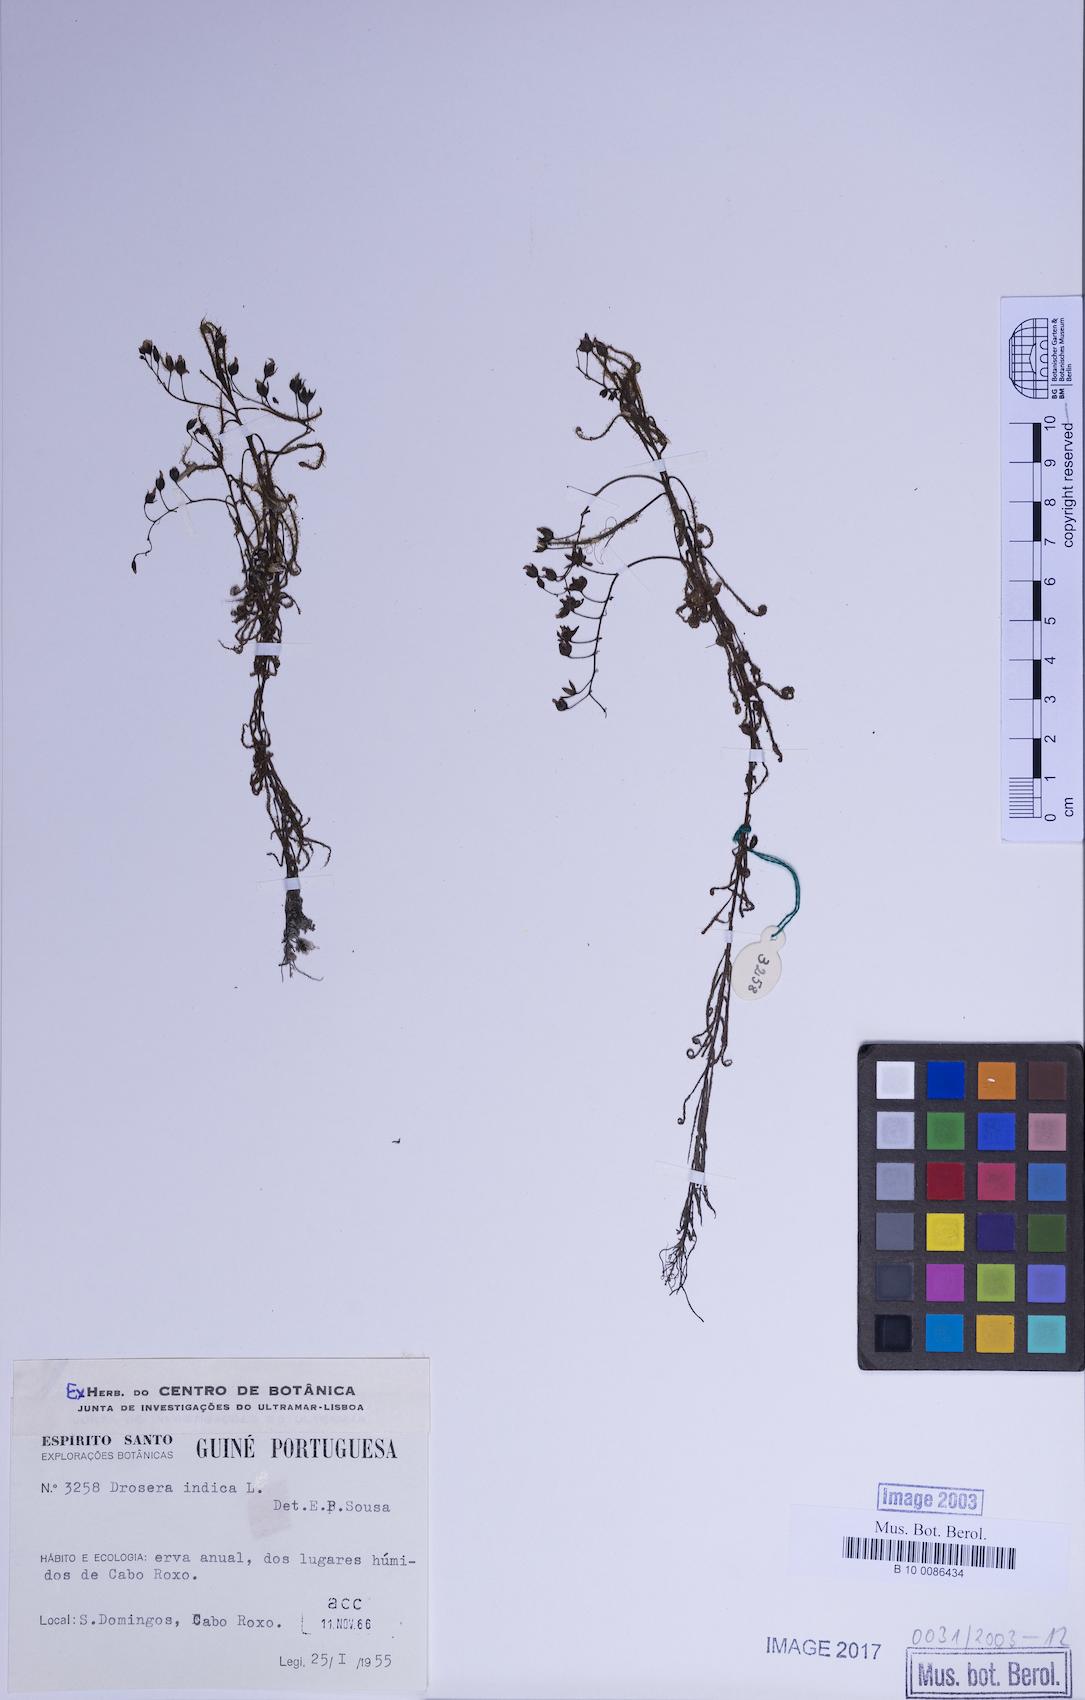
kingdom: Plantae
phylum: Tracheophyta
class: Magnoliopsida
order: Caryophyllales
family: Droseraceae
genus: Drosera
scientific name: Drosera indica
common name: Indian sundew
